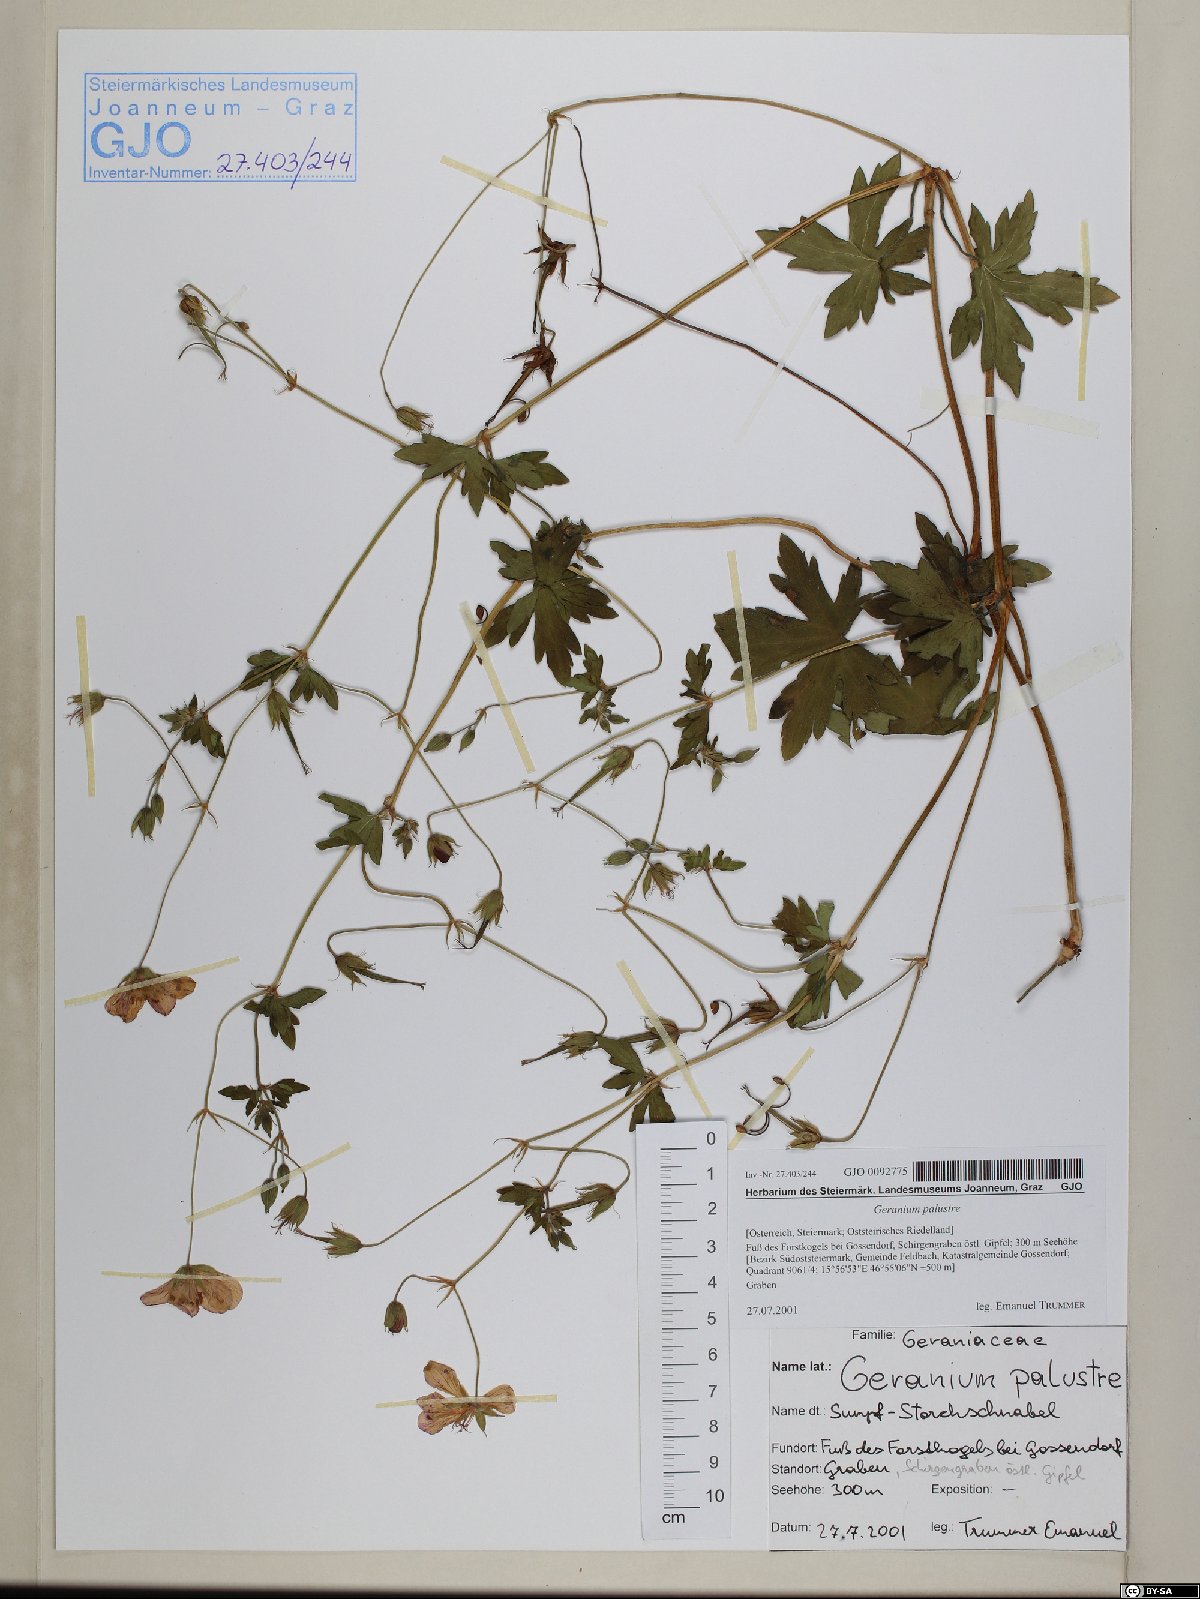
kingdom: Plantae
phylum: Tracheophyta
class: Magnoliopsida
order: Geraniales
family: Geraniaceae
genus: Geranium
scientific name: Geranium palustre
